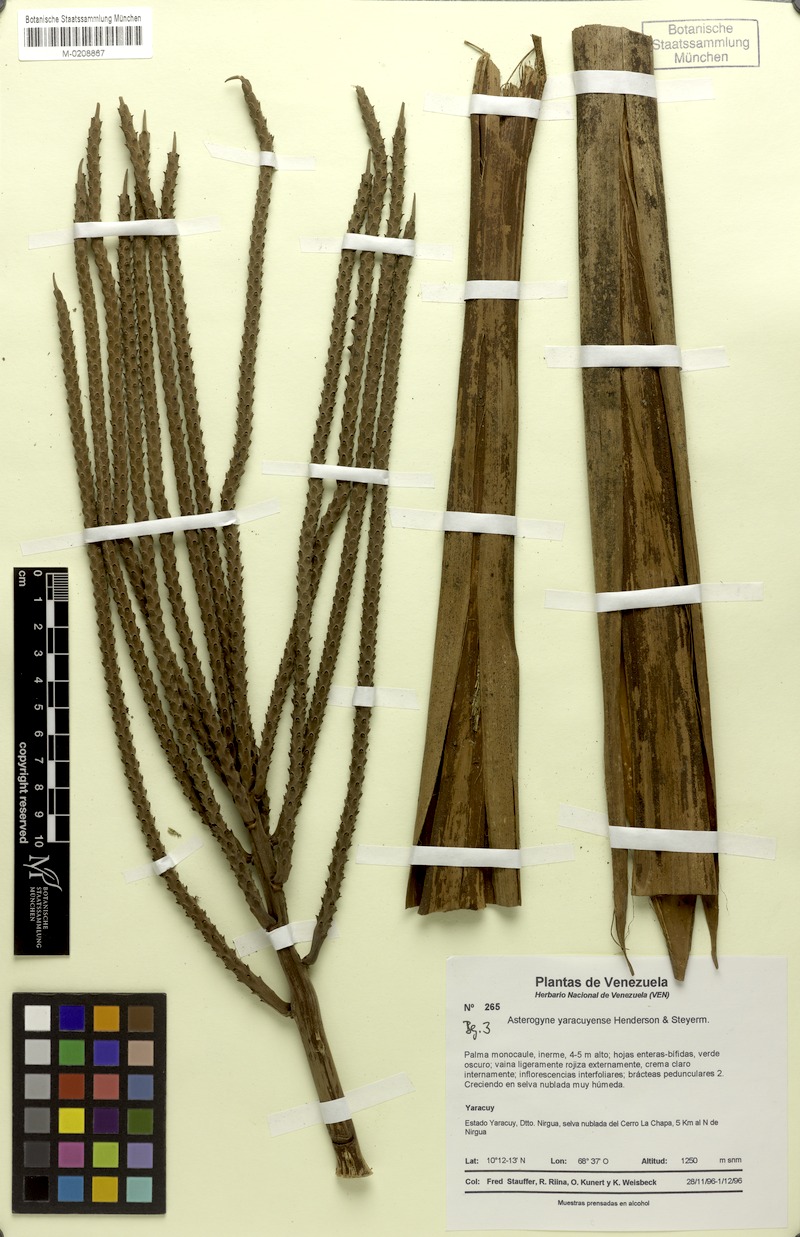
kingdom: Plantae
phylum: Tracheophyta
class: Liliopsida
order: Arecales
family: Arecaceae
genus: Asterogyne
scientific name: Asterogyne yaracuyense
